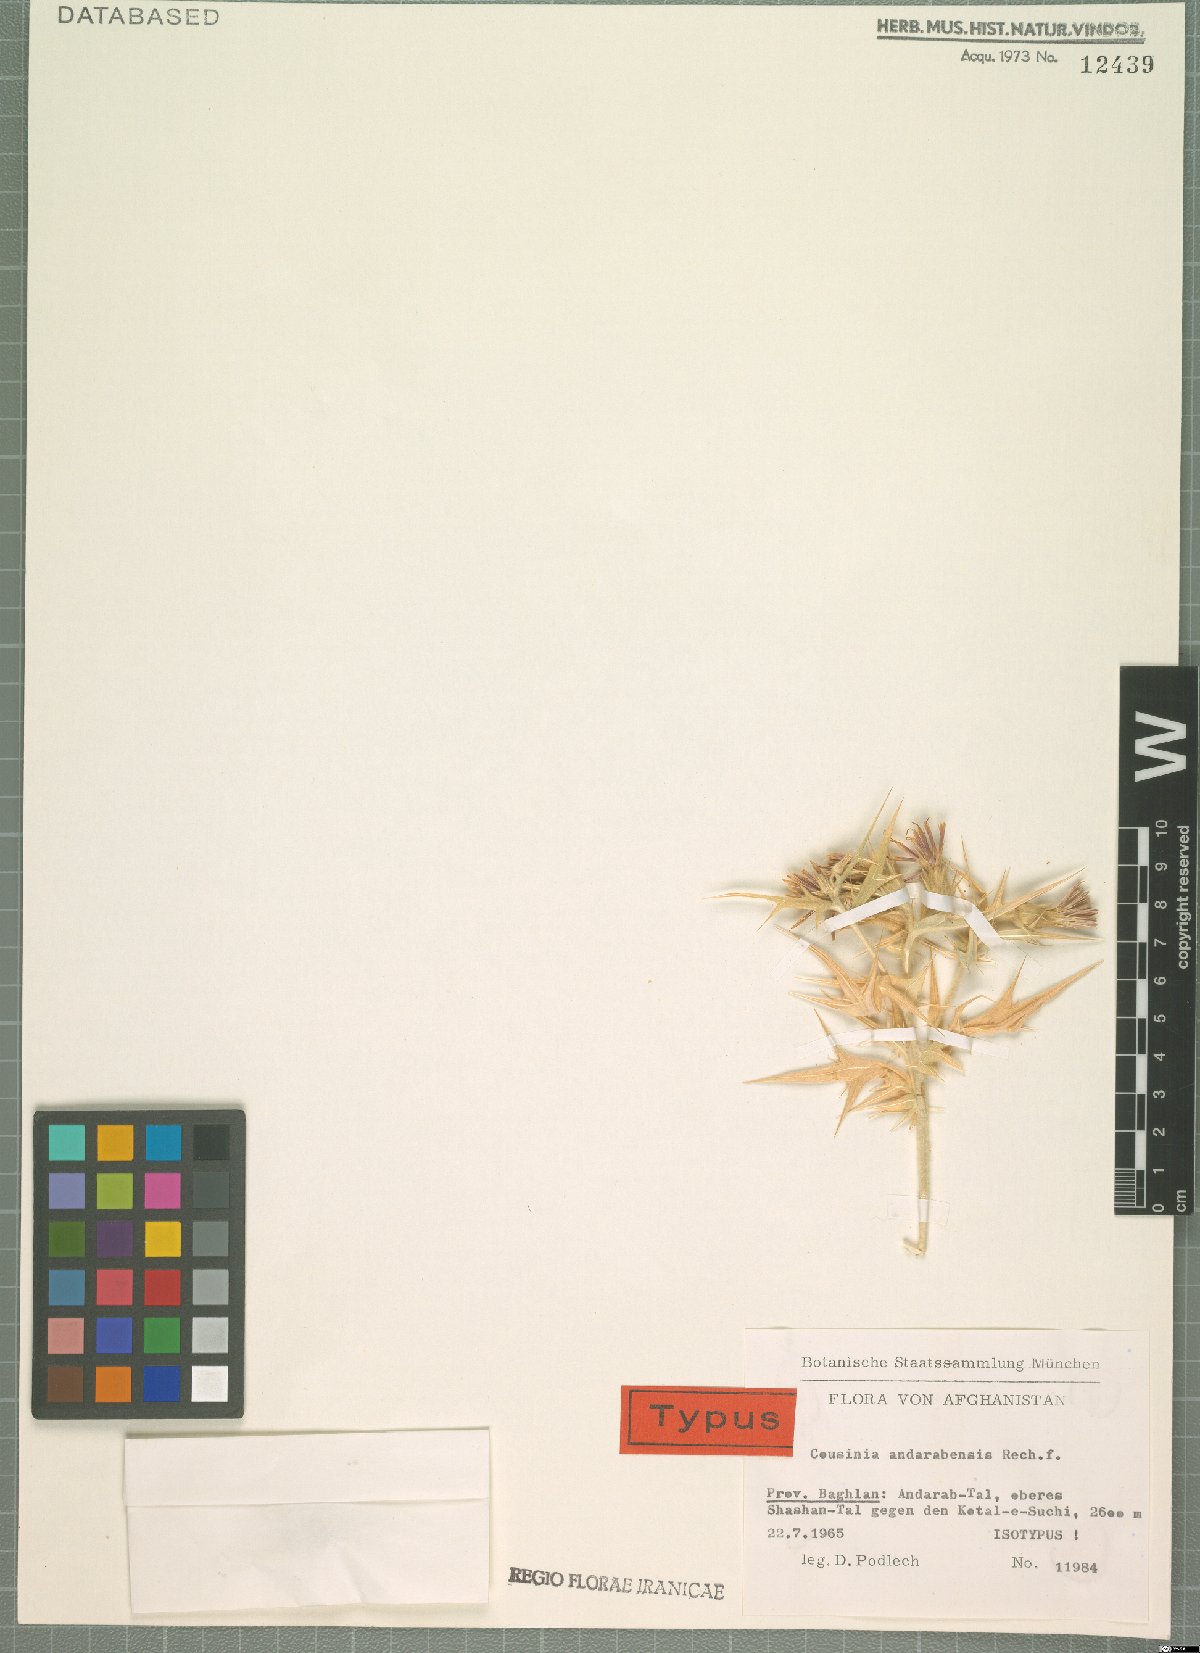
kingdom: Plantae
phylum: Tracheophyta
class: Magnoliopsida
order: Asterales
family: Asteraceae
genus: Cousinia
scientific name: Cousinia andarabensis
